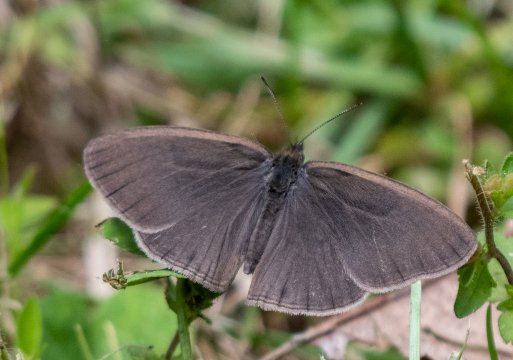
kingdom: Animalia
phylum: Arthropoda
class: Insecta
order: Lepidoptera
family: Nymphalidae
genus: Euptychia
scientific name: Euptychia cornelius
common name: Gemmed Satyr
